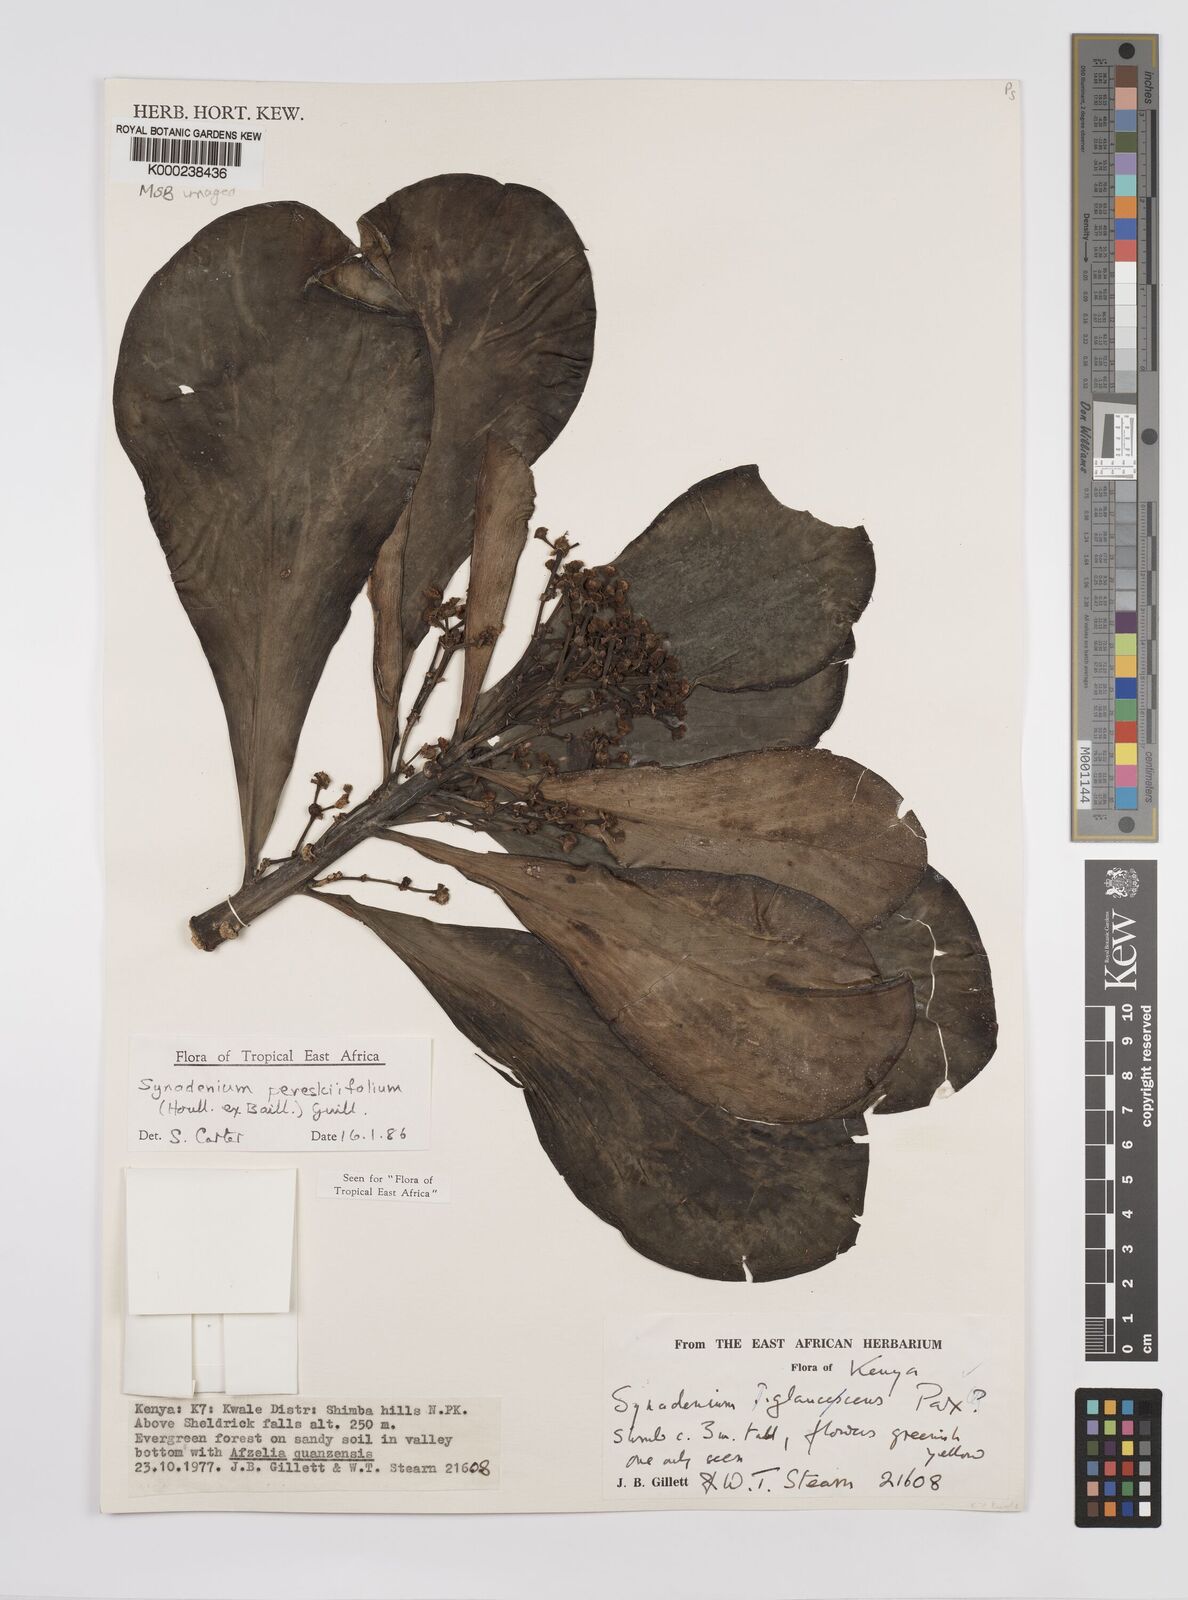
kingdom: Plantae
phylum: Tracheophyta
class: Magnoliopsida
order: Malpighiales
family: Euphorbiaceae
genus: Euphorbia
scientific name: Euphorbia pereskiifolia
